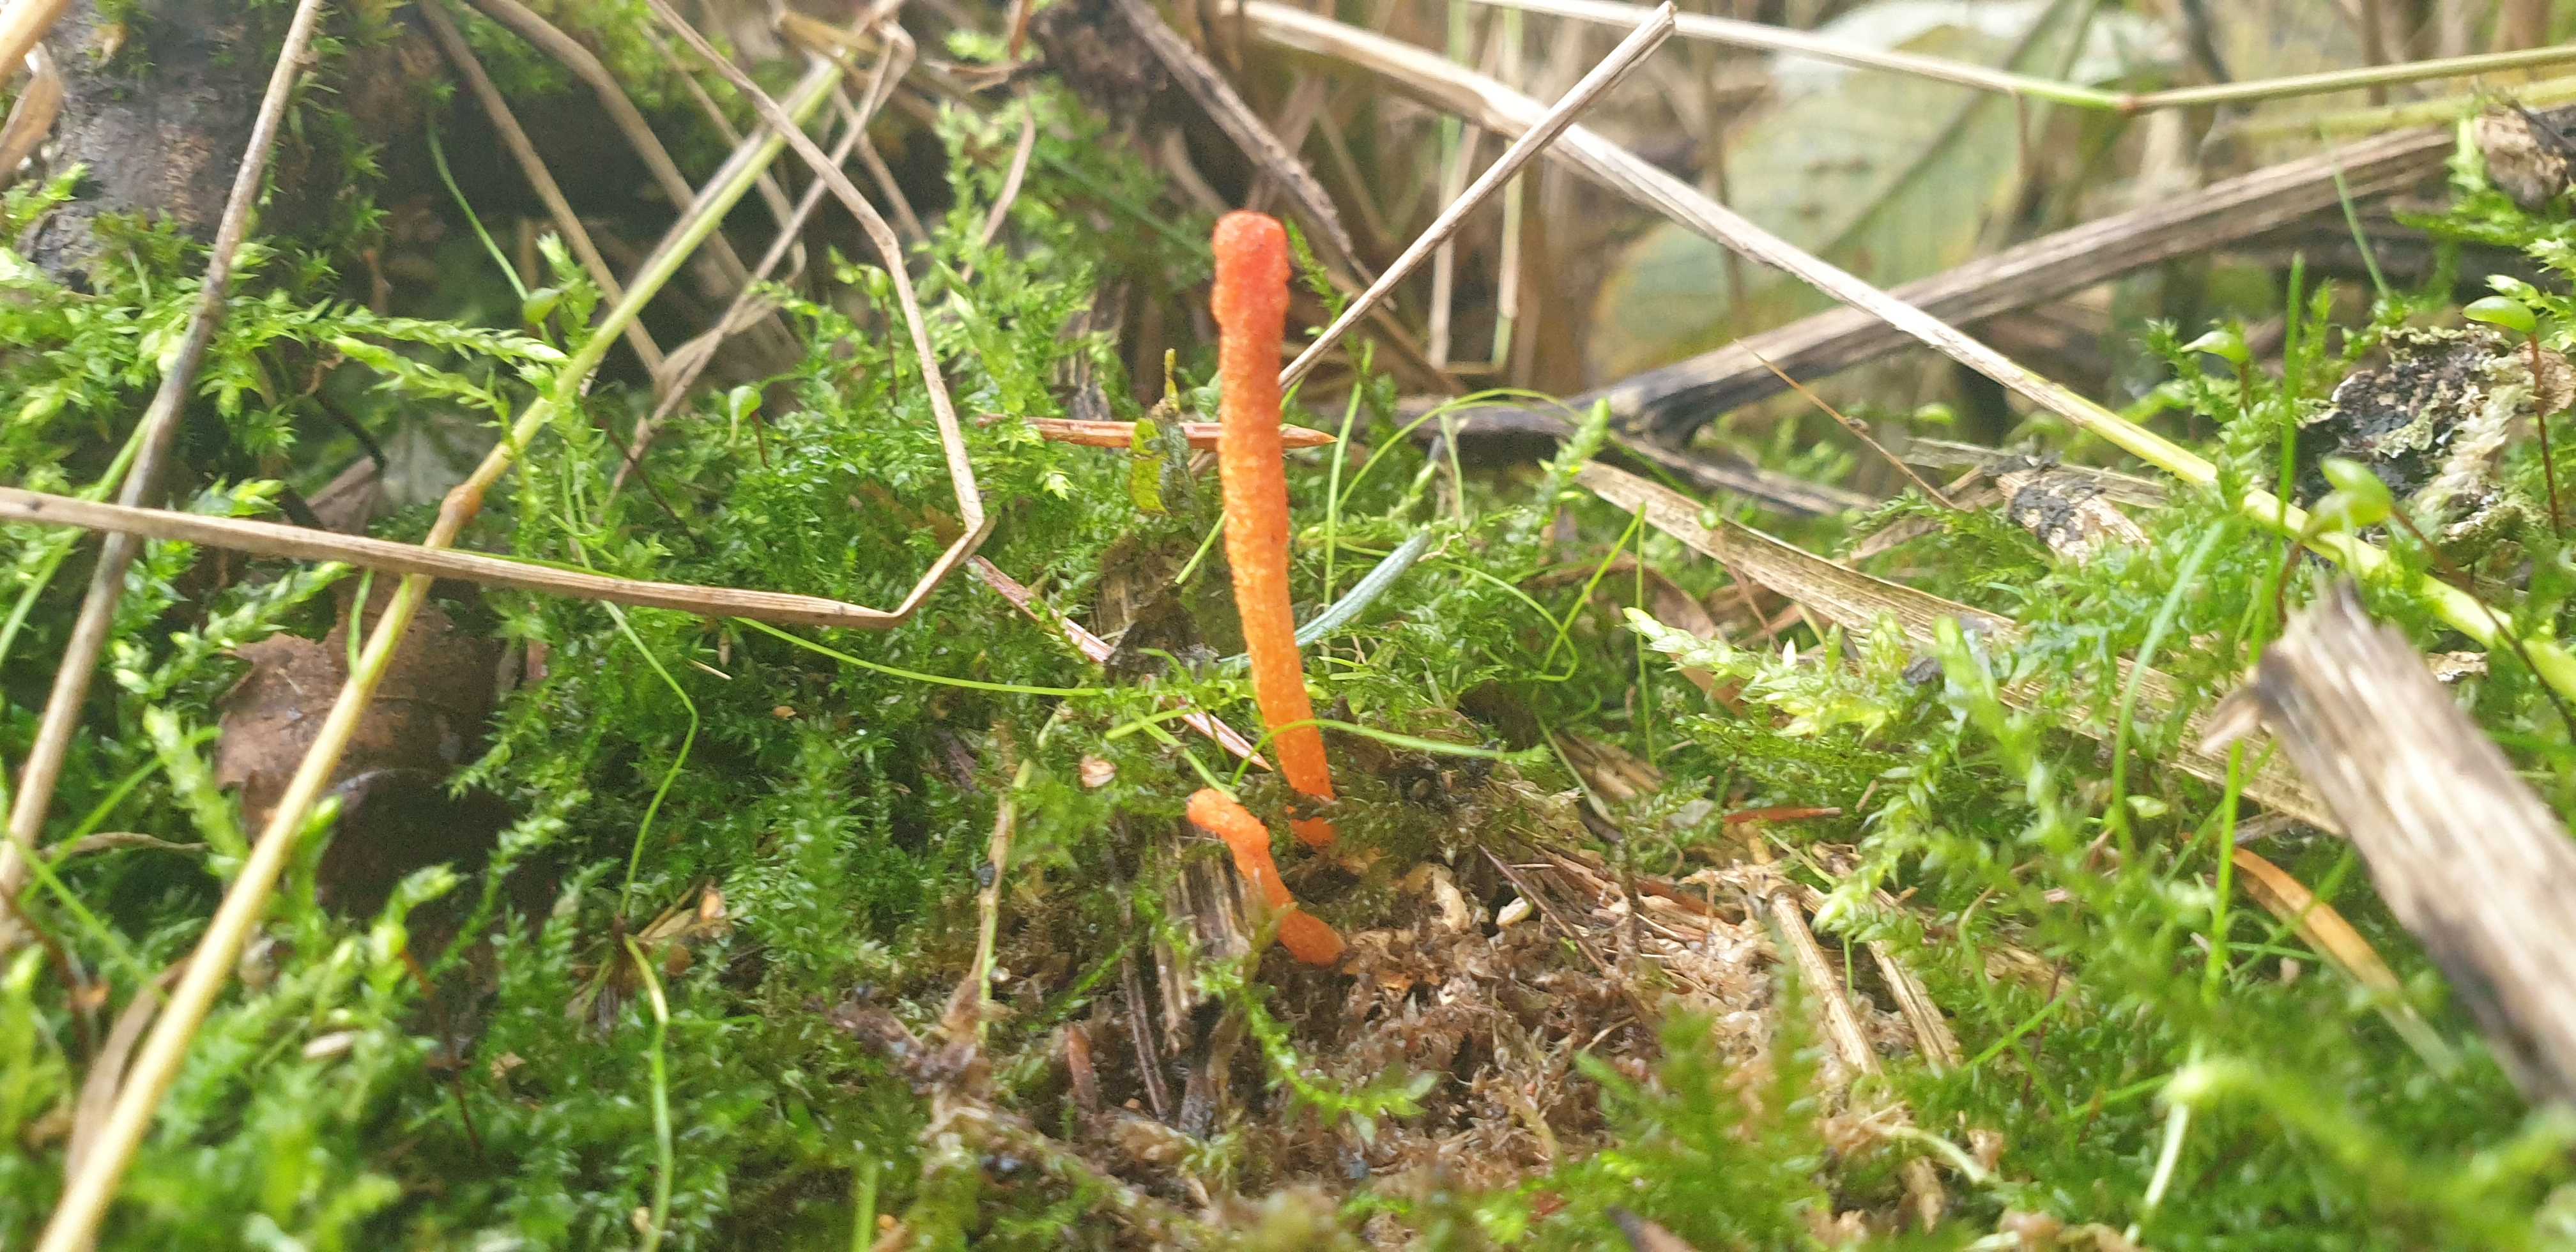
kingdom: Fungi
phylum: Ascomycota
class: Sordariomycetes
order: Hypocreales
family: Cordycipitaceae
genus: Cordyceps
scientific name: Cordyceps militaris
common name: puppe-snyltekølle
